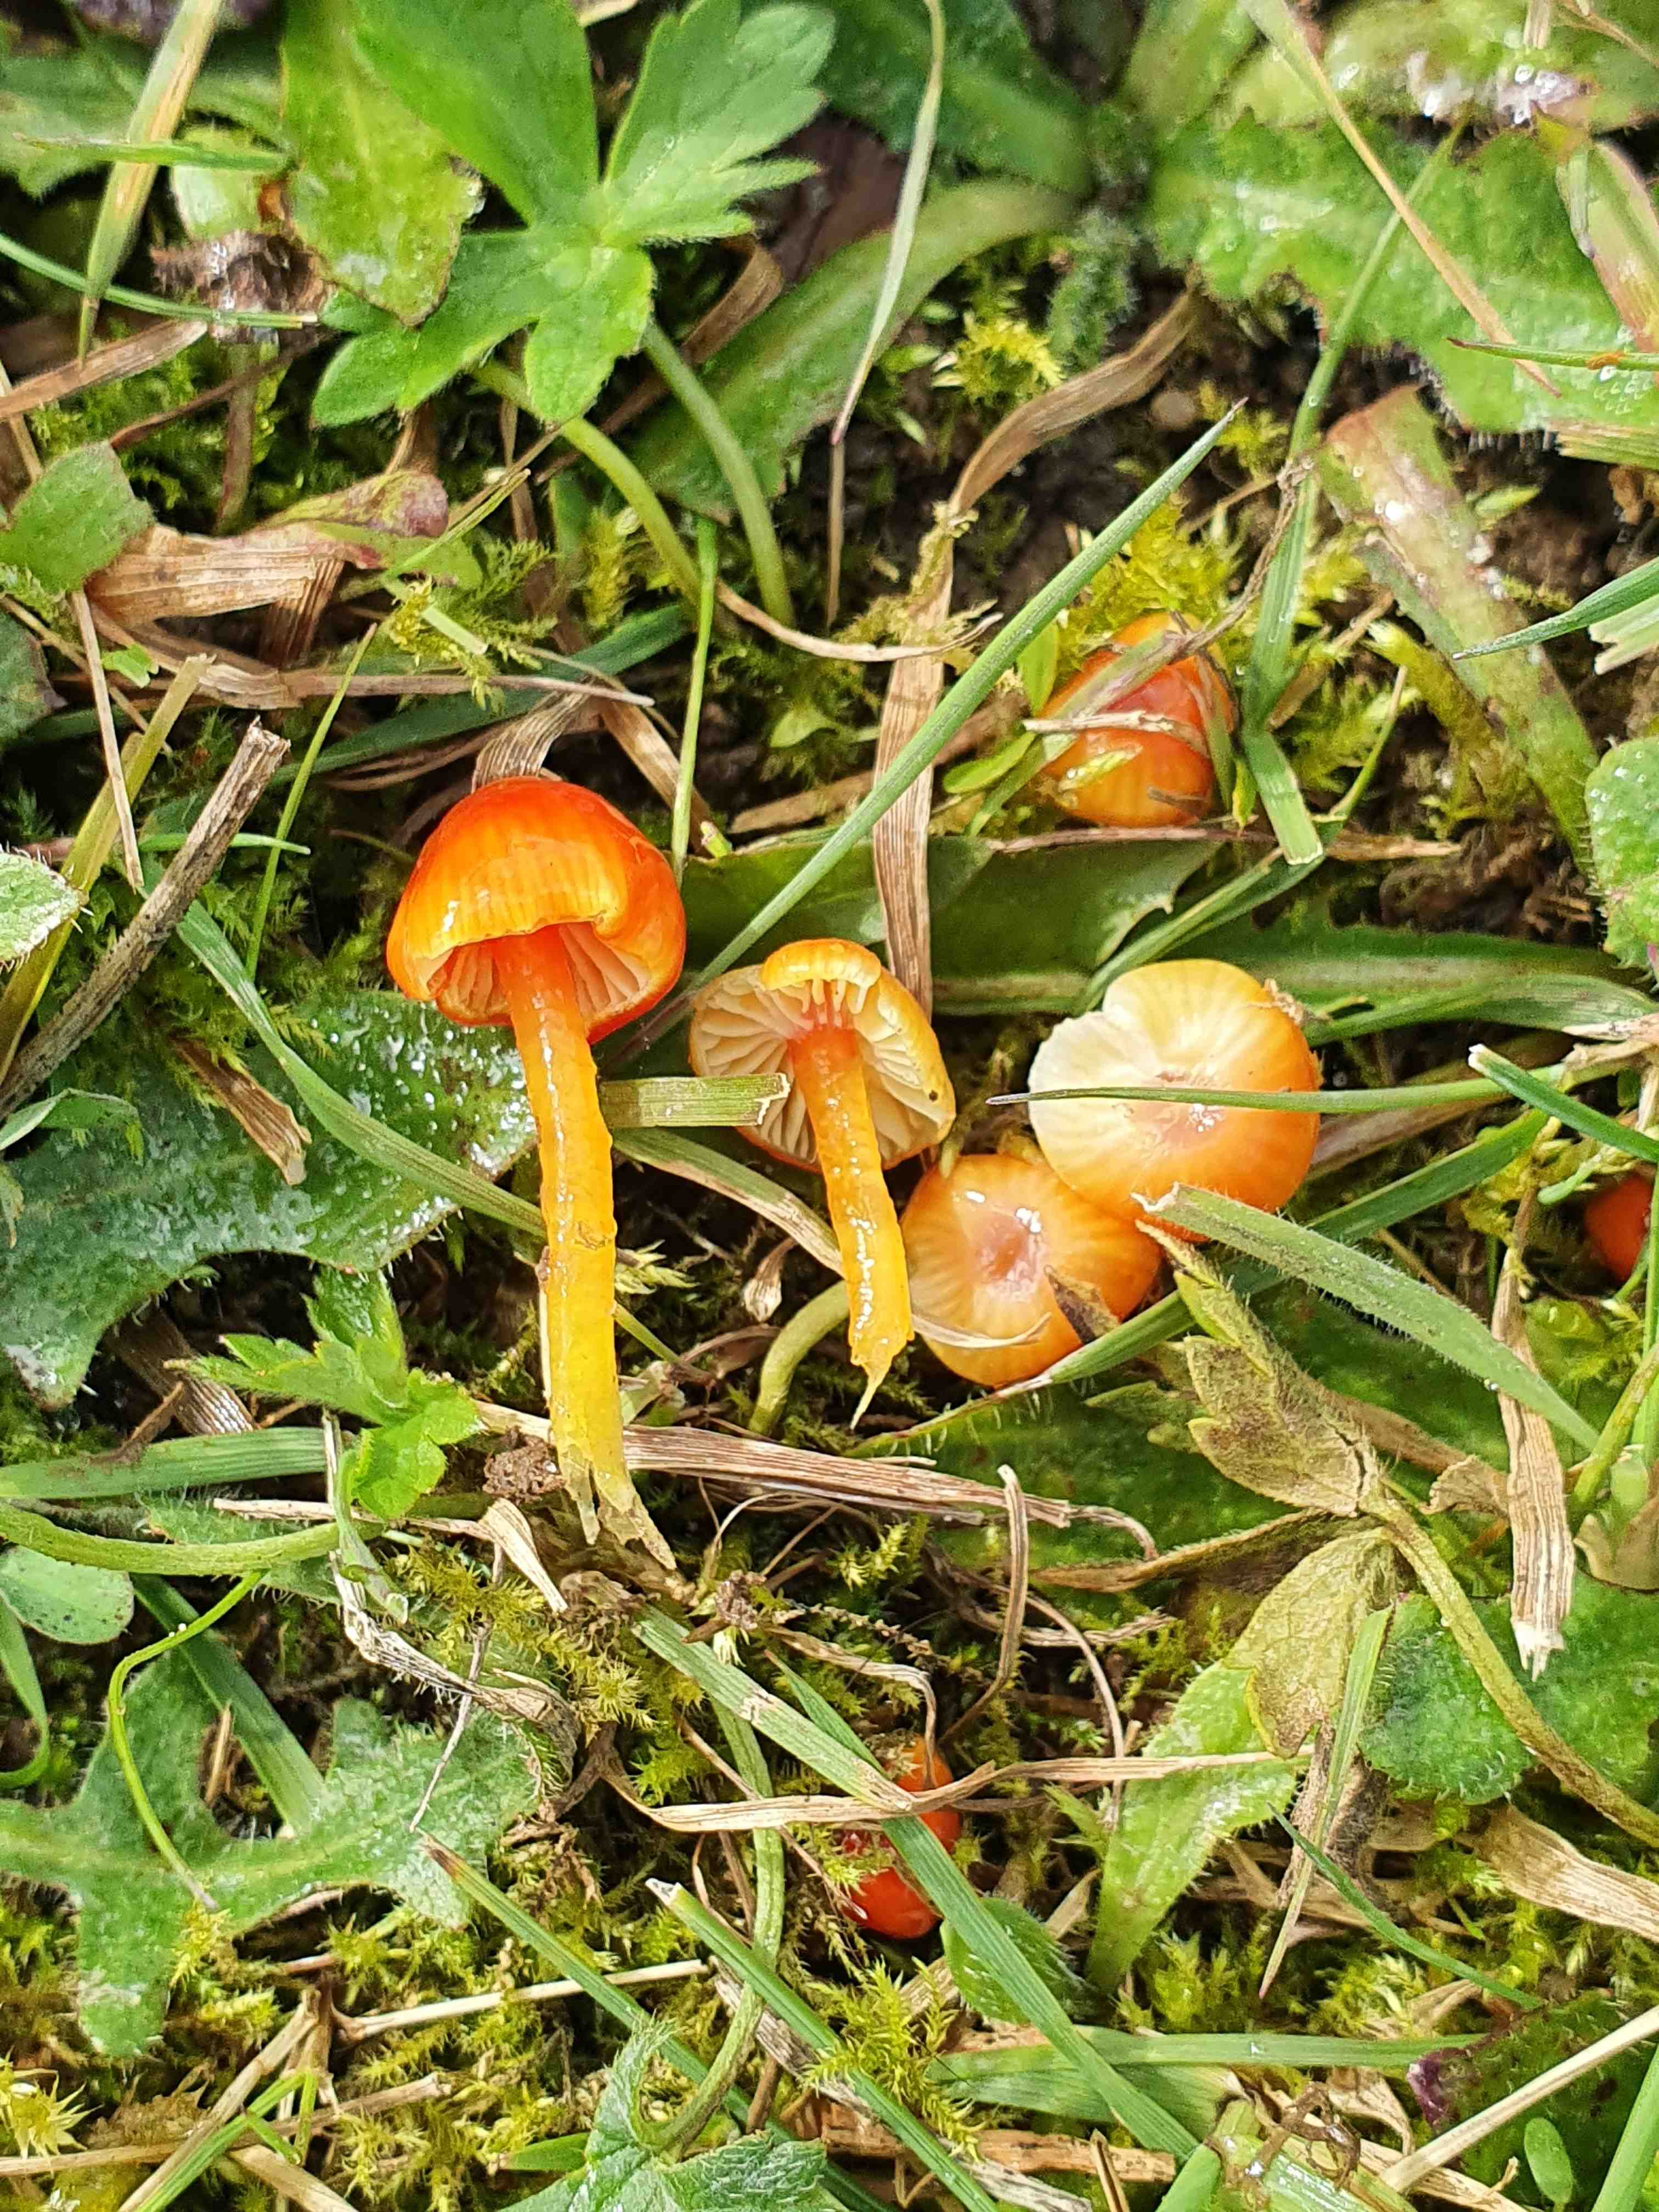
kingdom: Fungi
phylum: Basidiomycota
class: Agaricomycetes
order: Agaricales
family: Hygrophoraceae
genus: Hygrocybe
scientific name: Hygrocybe glutinipes
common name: slimstokket vokshat
